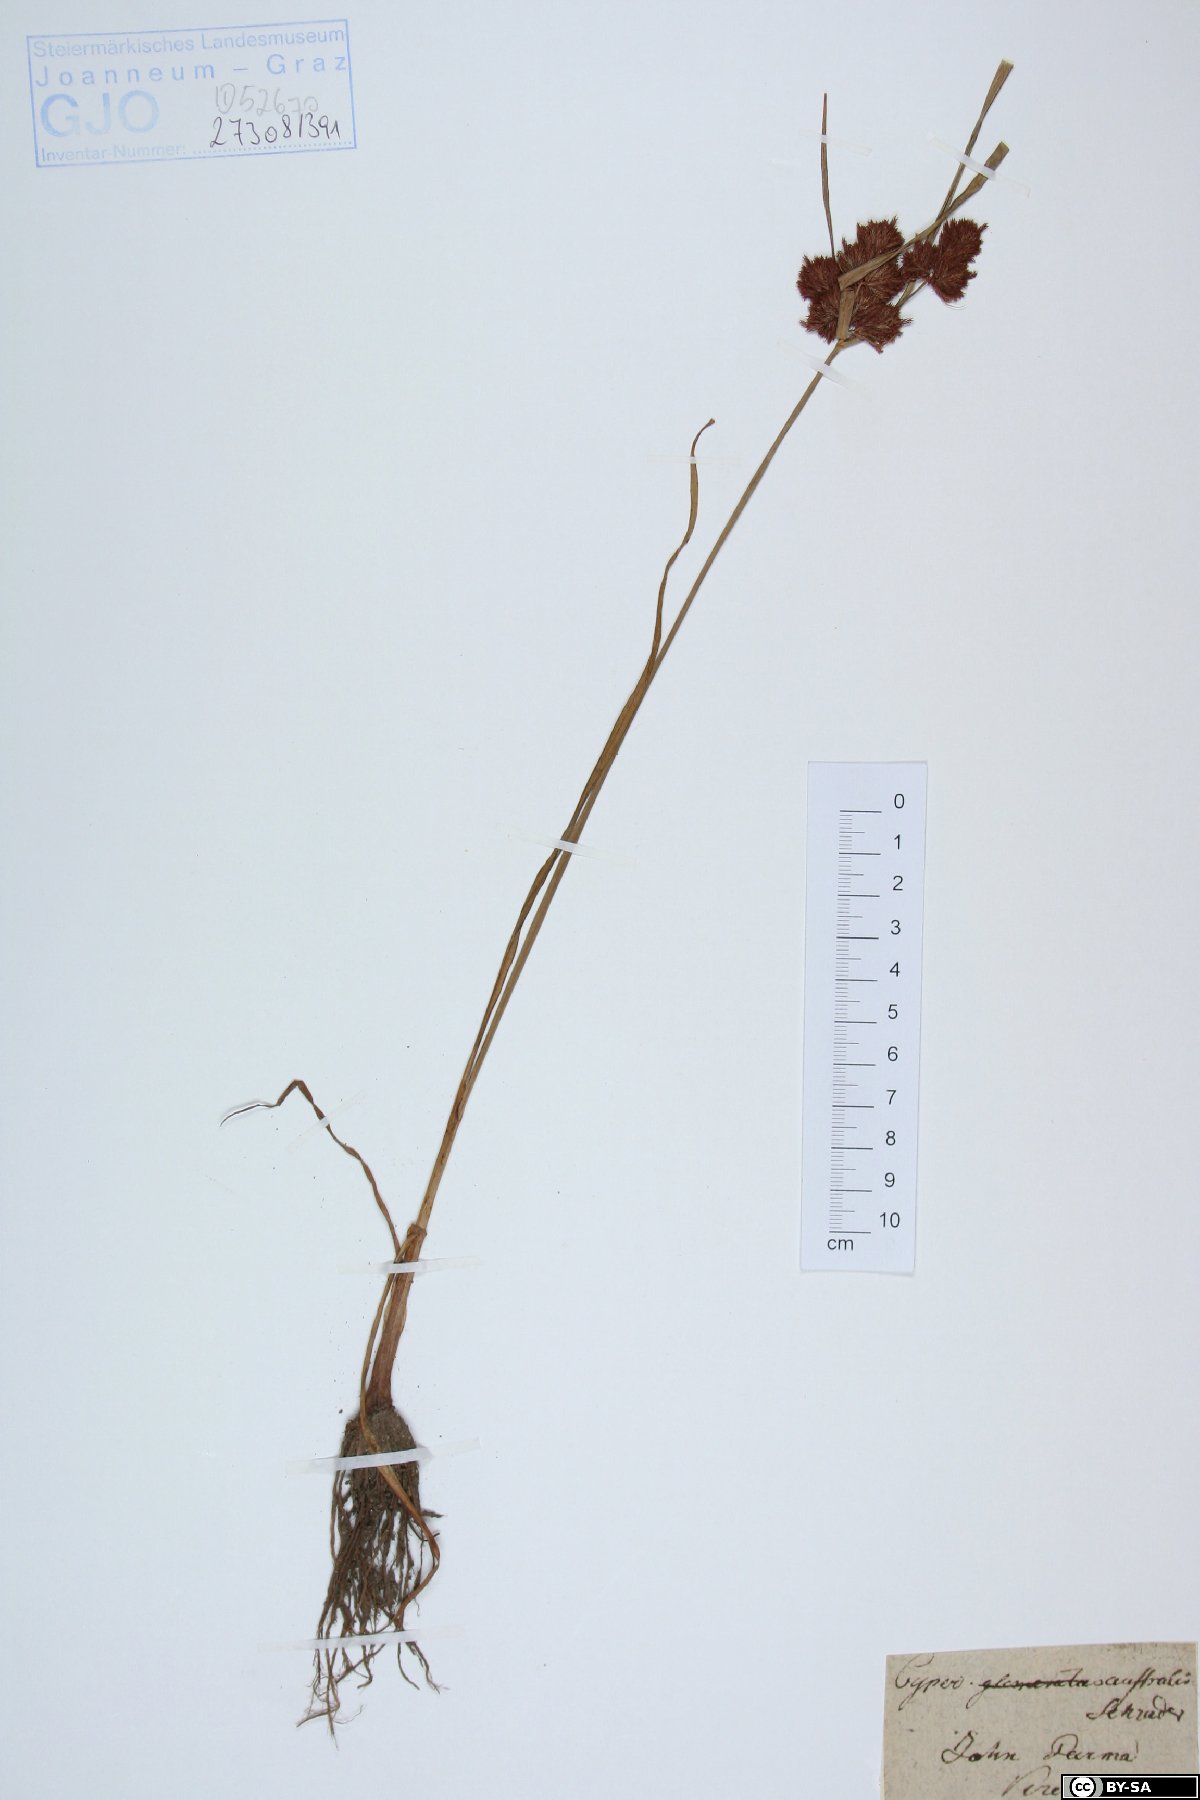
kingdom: Plantae
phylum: Tracheophyta
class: Liliopsida
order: Poales
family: Cyperaceae
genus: Cyperus
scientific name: Cyperus glomeratus
